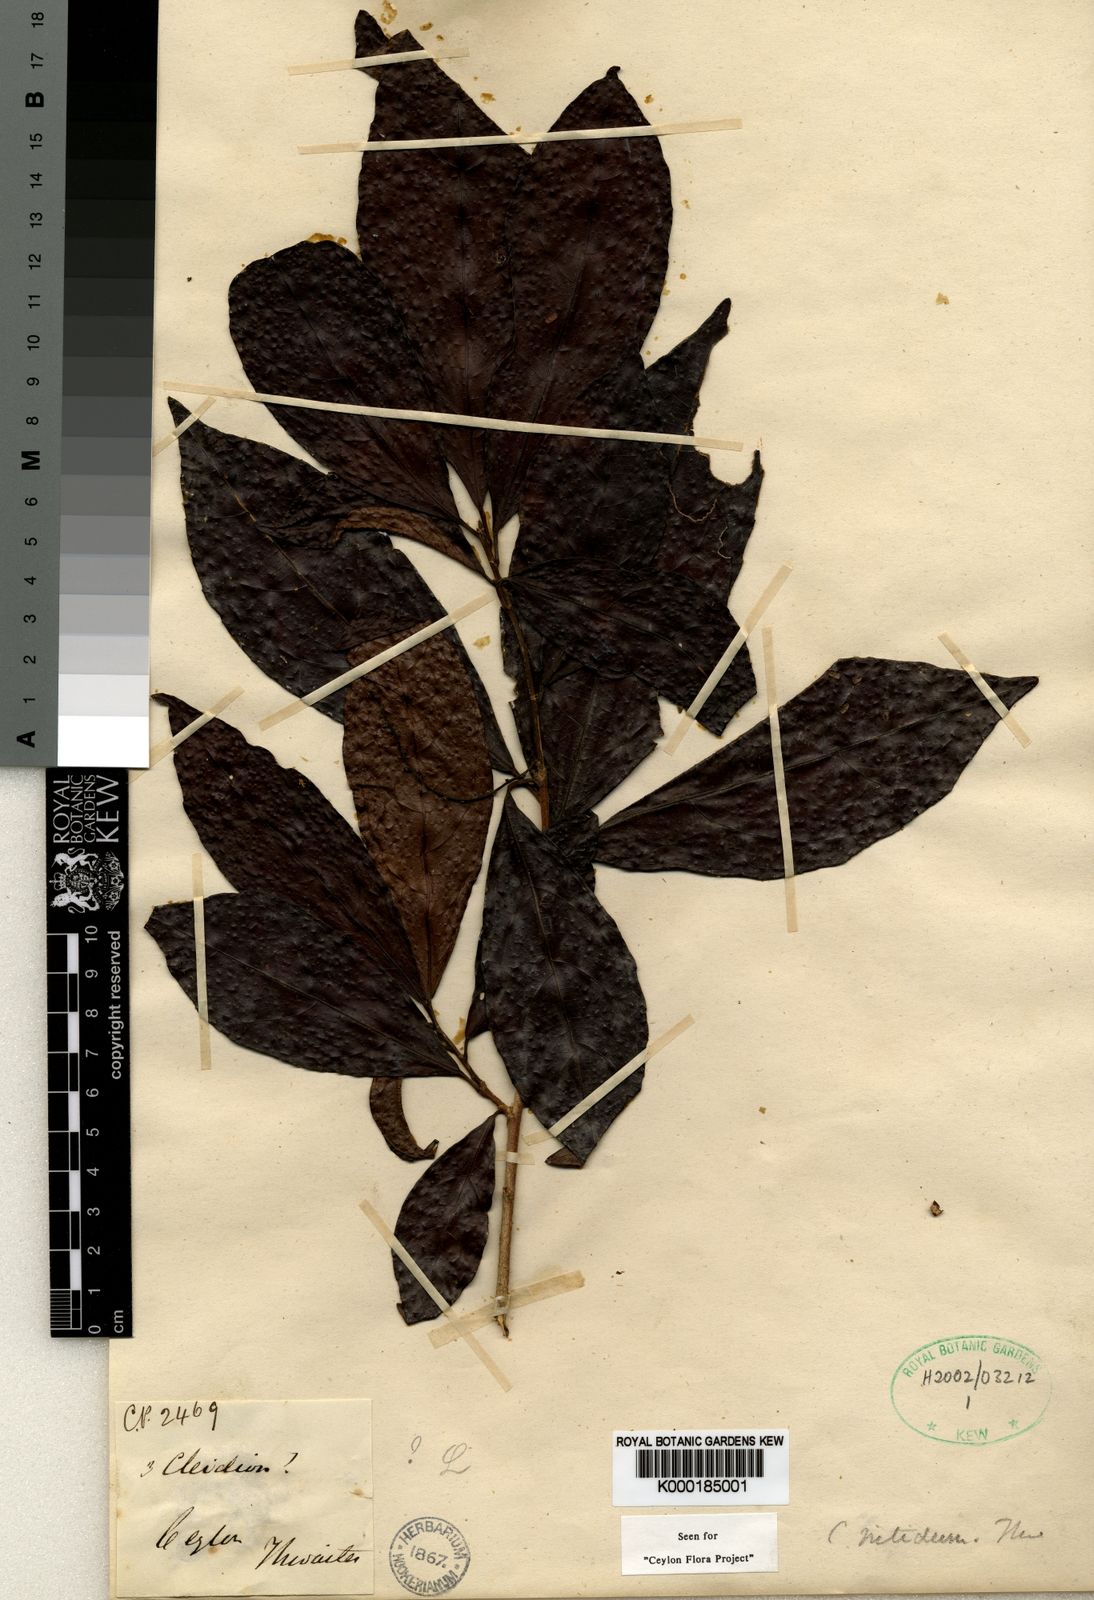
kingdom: Plantae
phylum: Tracheophyta
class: Magnoliopsida
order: Malpighiales
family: Euphorbiaceae
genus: Cleidion
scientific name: Cleidion nitidum
